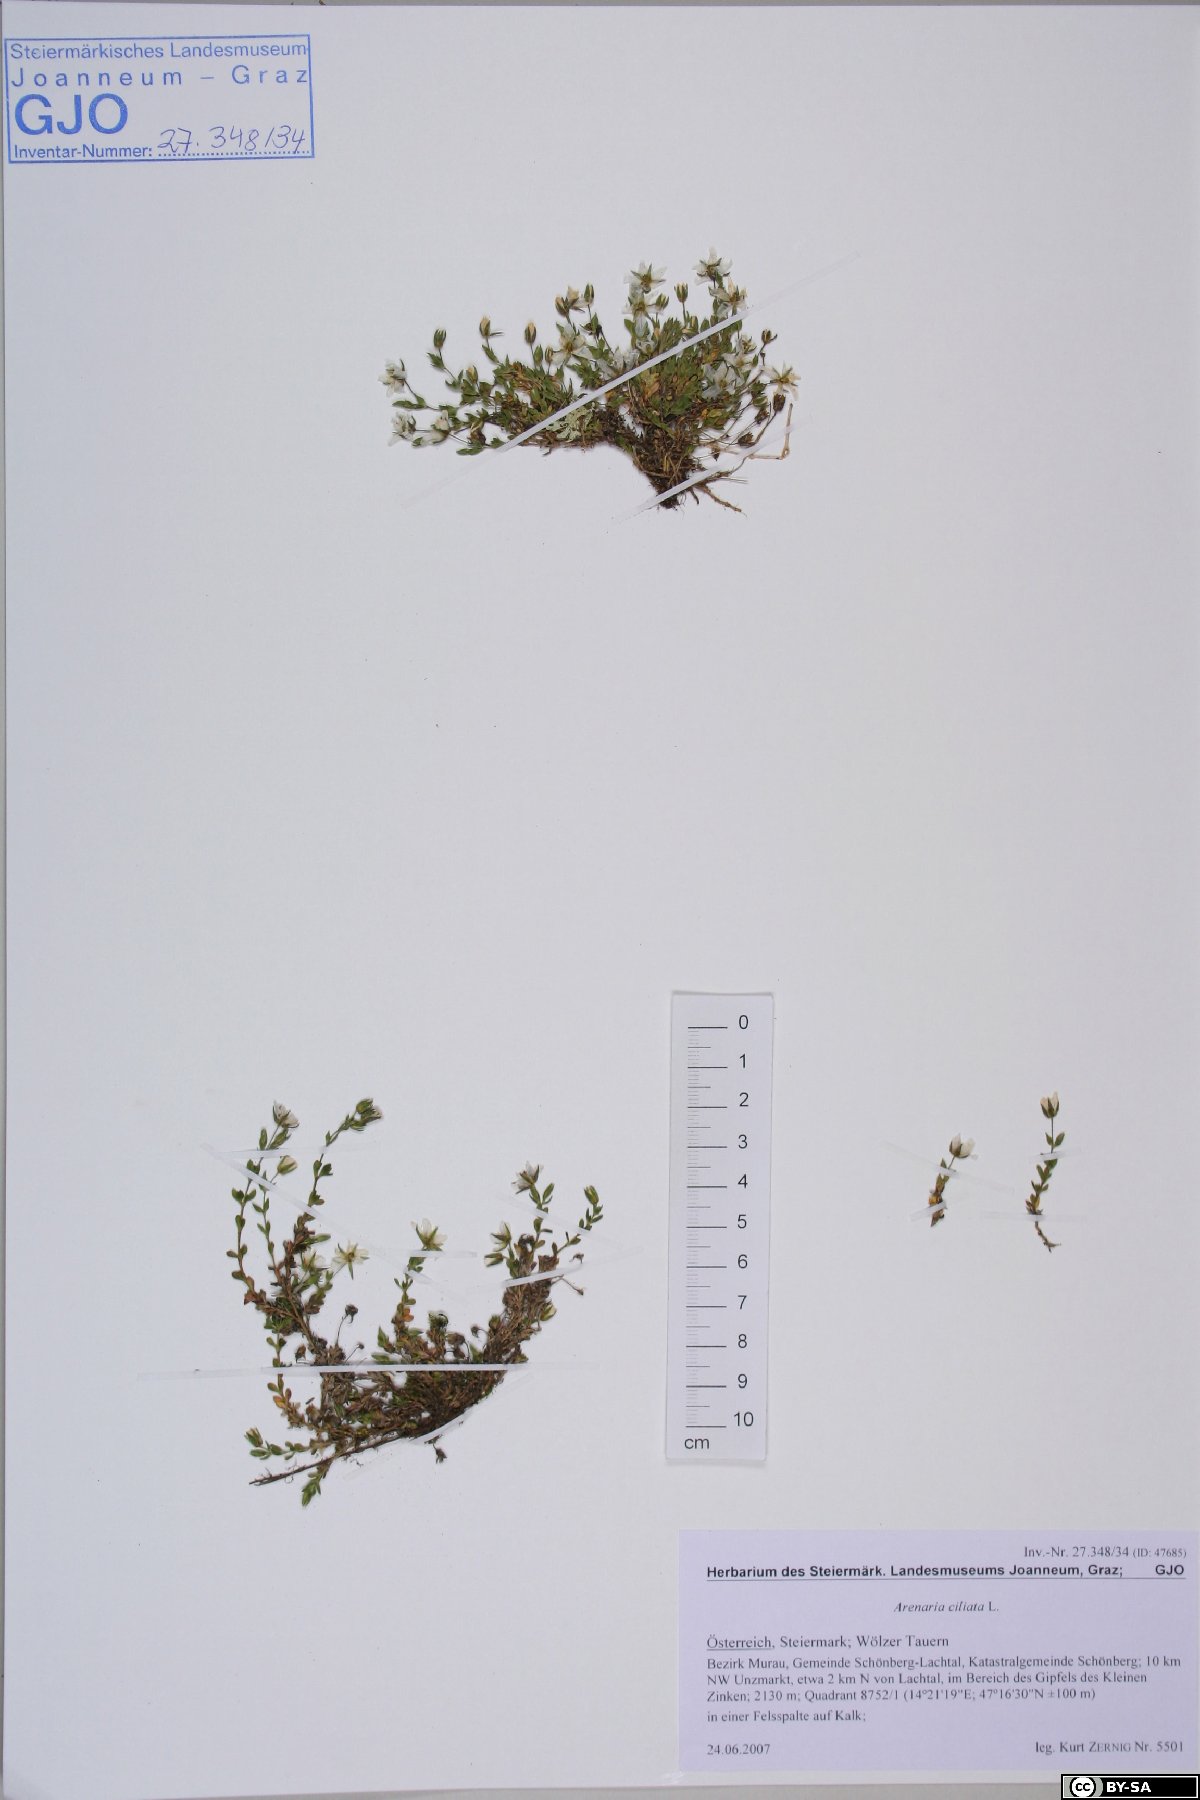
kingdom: Plantae
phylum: Tracheophyta
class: Magnoliopsida
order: Caryophyllales
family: Caryophyllaceae
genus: Arenaria
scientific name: Arenaria ciliata
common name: Fringed sandwort
